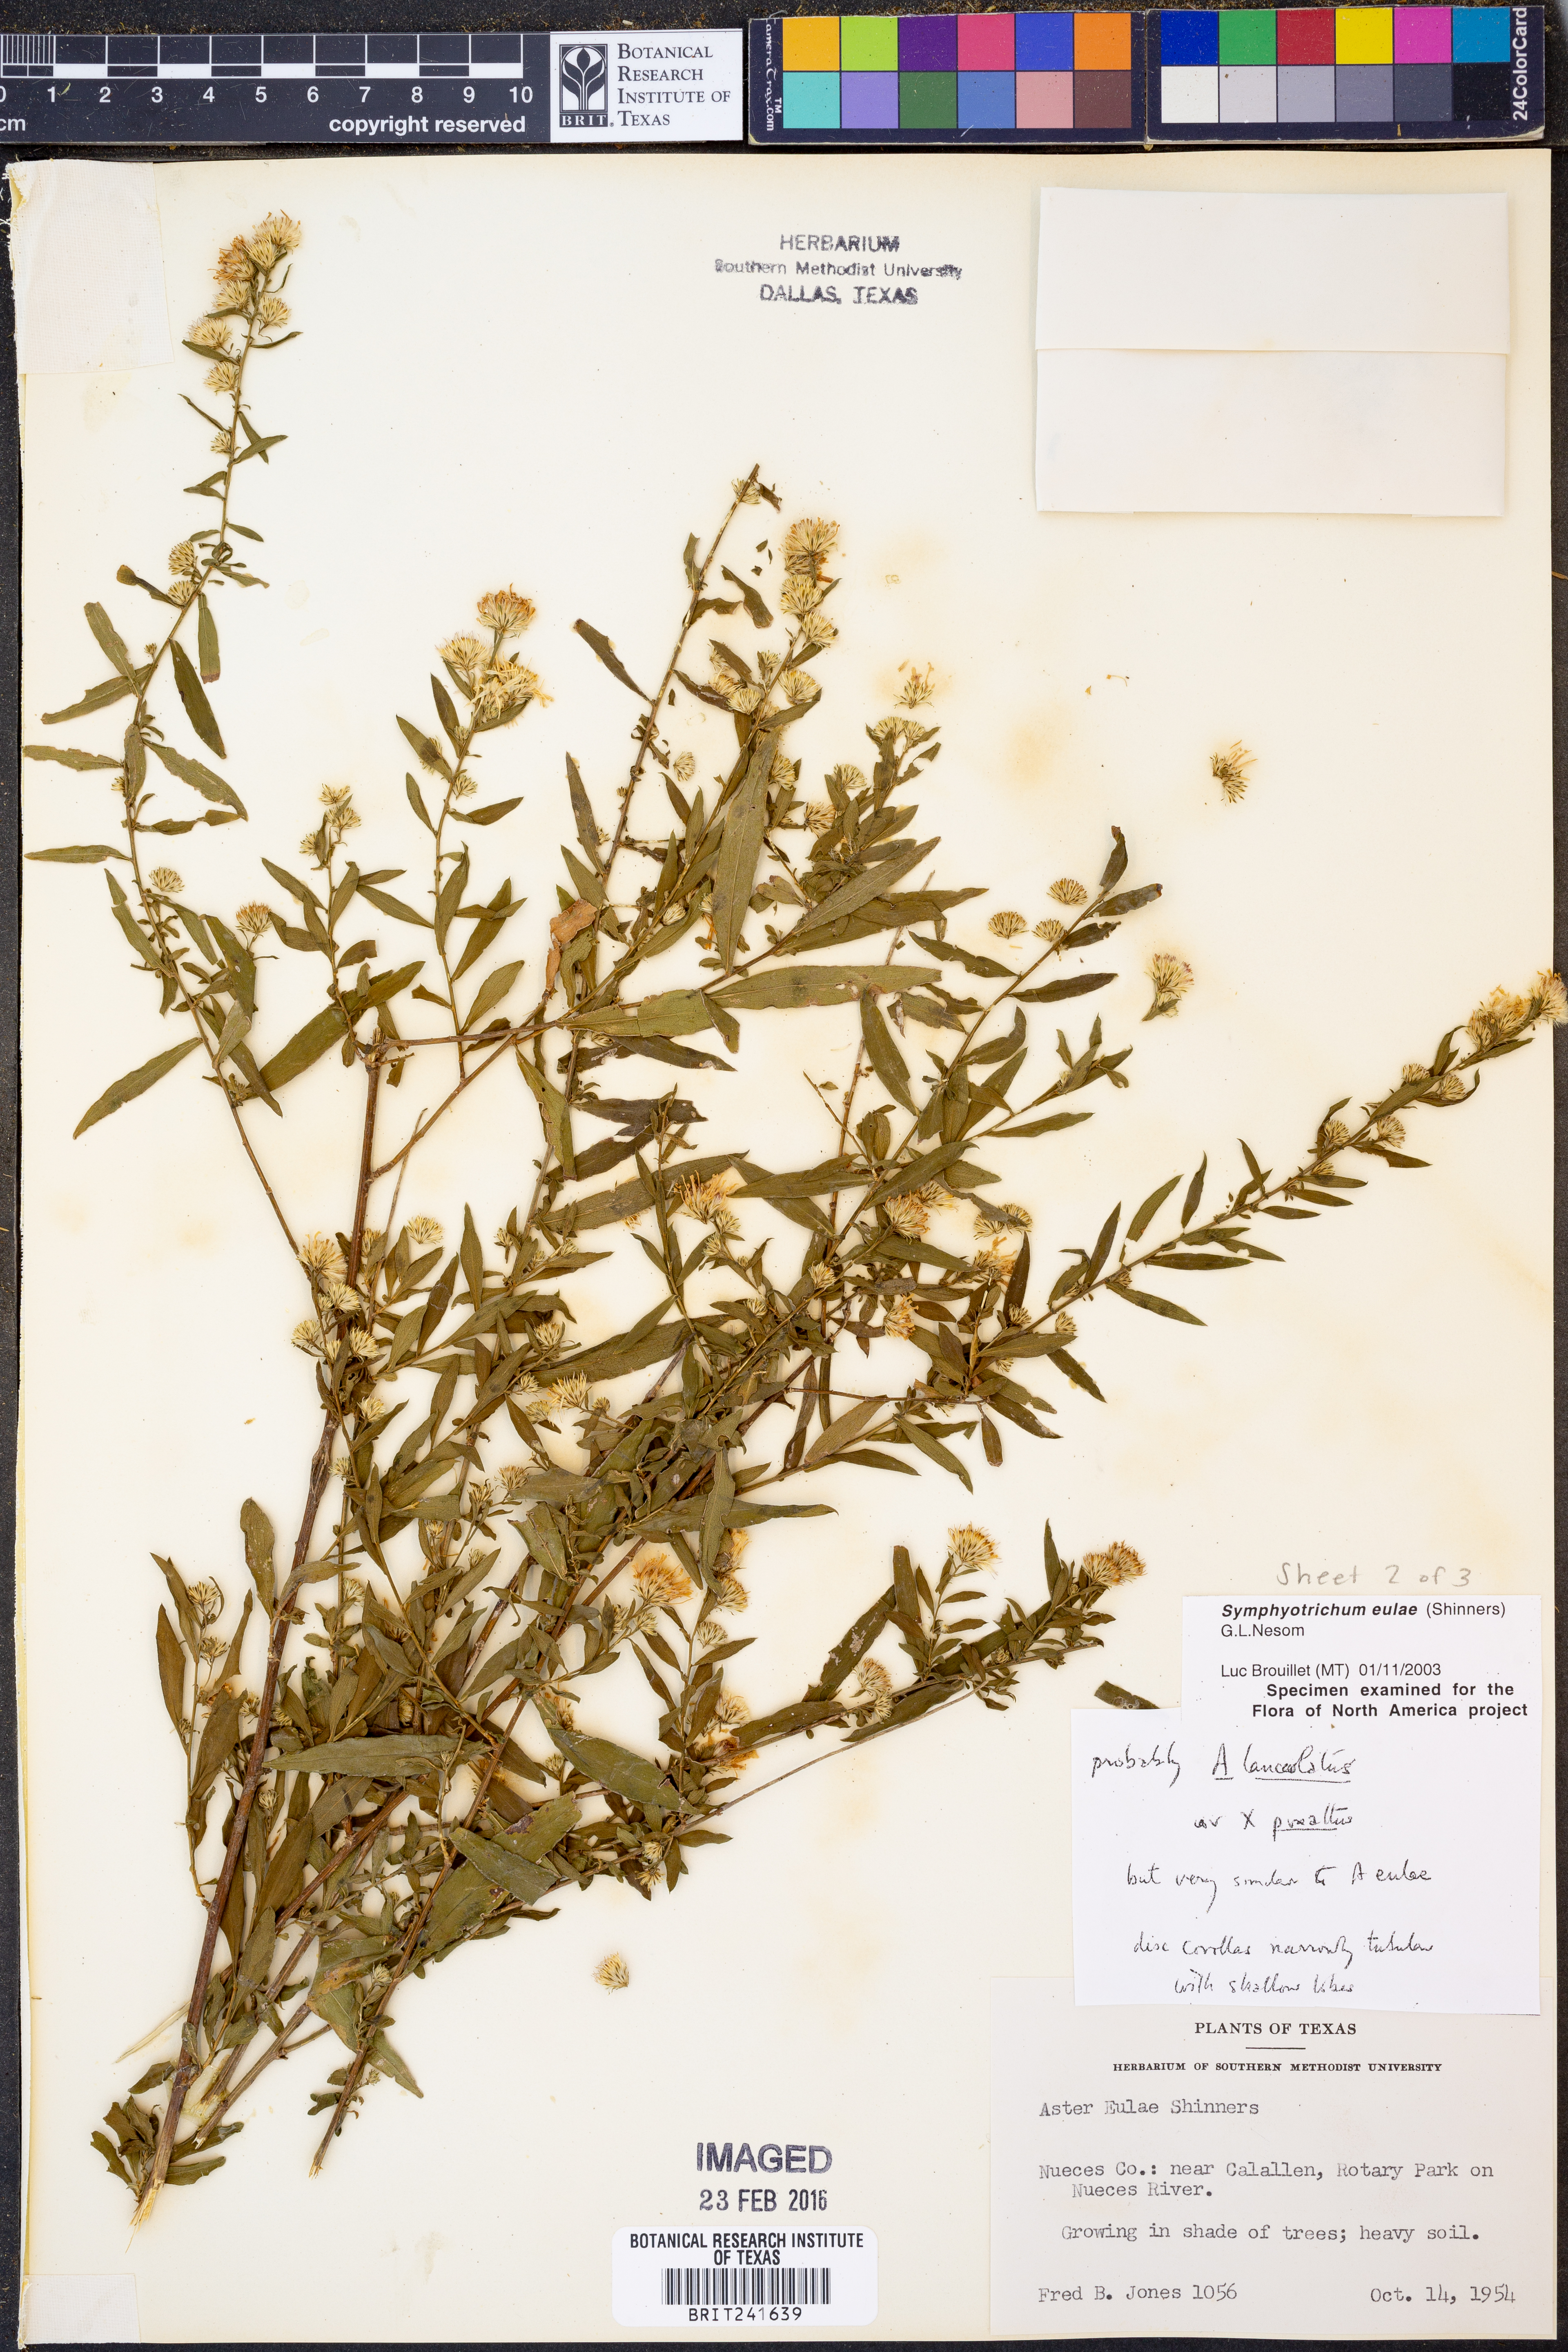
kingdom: Plantae
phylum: Tracheophyta
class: Magnoliopsida
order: Asterales
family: Asteraceae
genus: Symphyotrichum
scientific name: Symphyotrichum eulae
